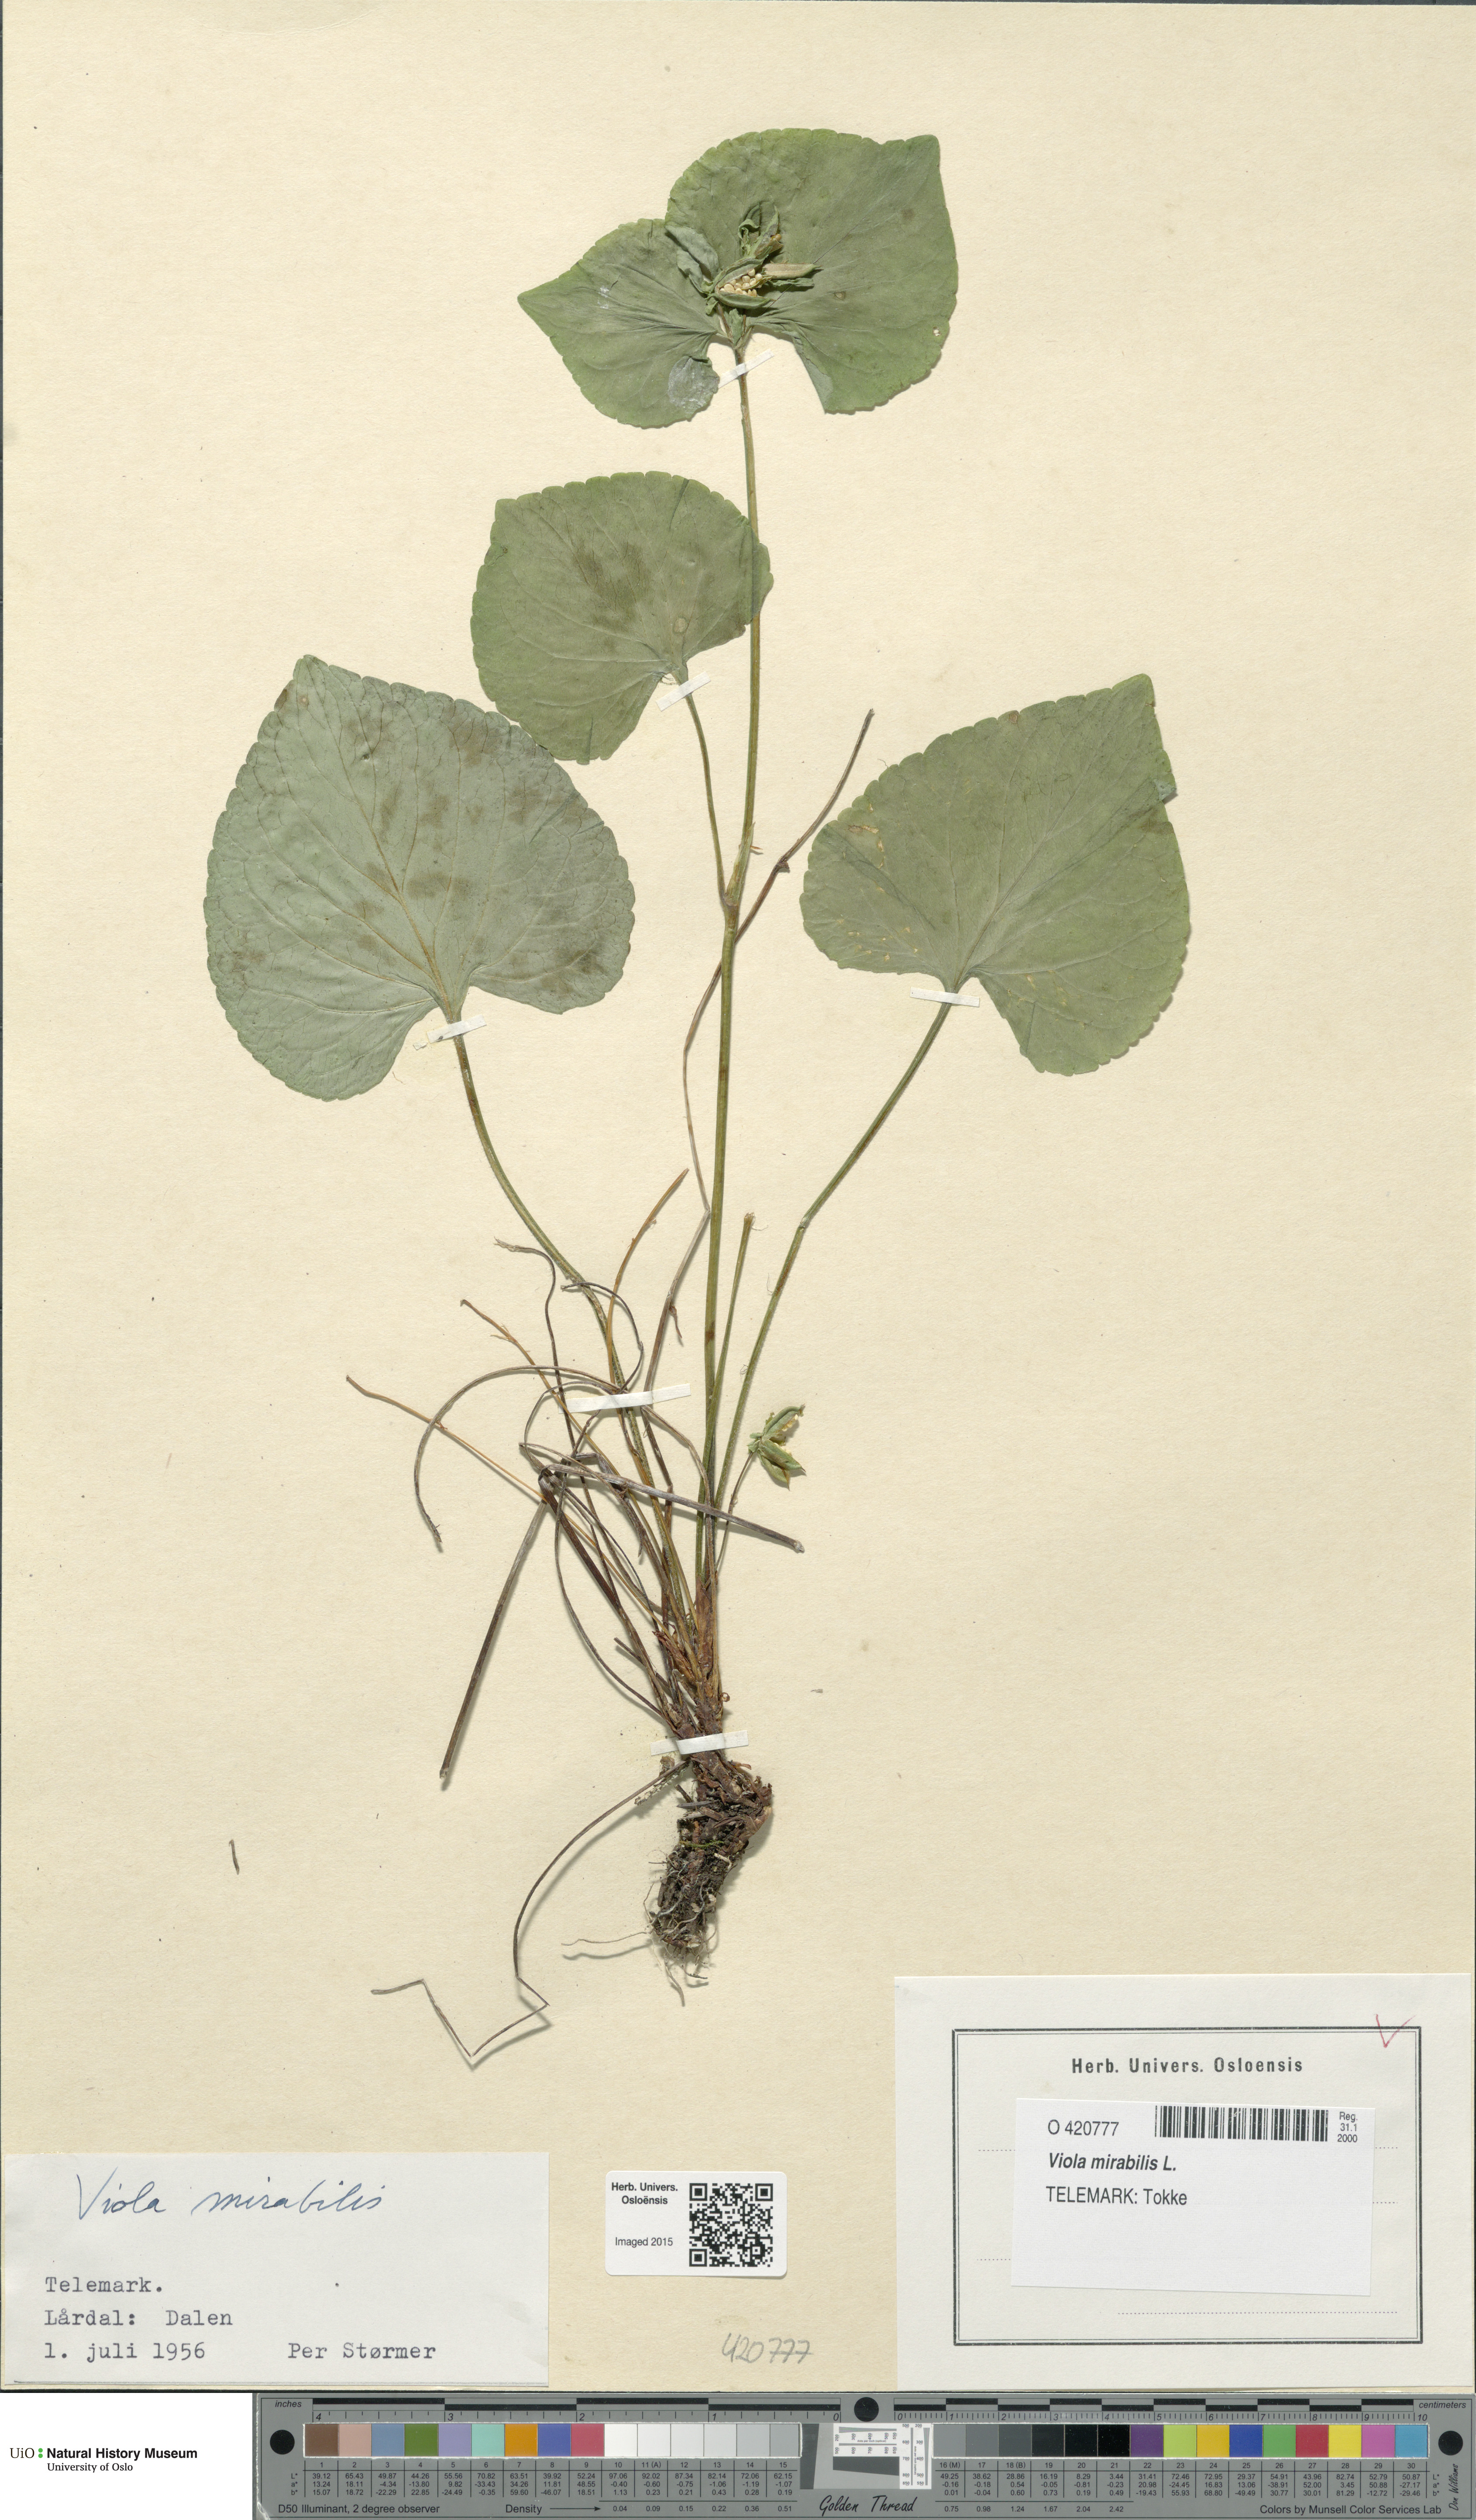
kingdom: Plantae
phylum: Tracheophyta
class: Magnoliopsida
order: Malpighiales
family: Violaceae
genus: Viola
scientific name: Viola mirabilis
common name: Wonder violet
